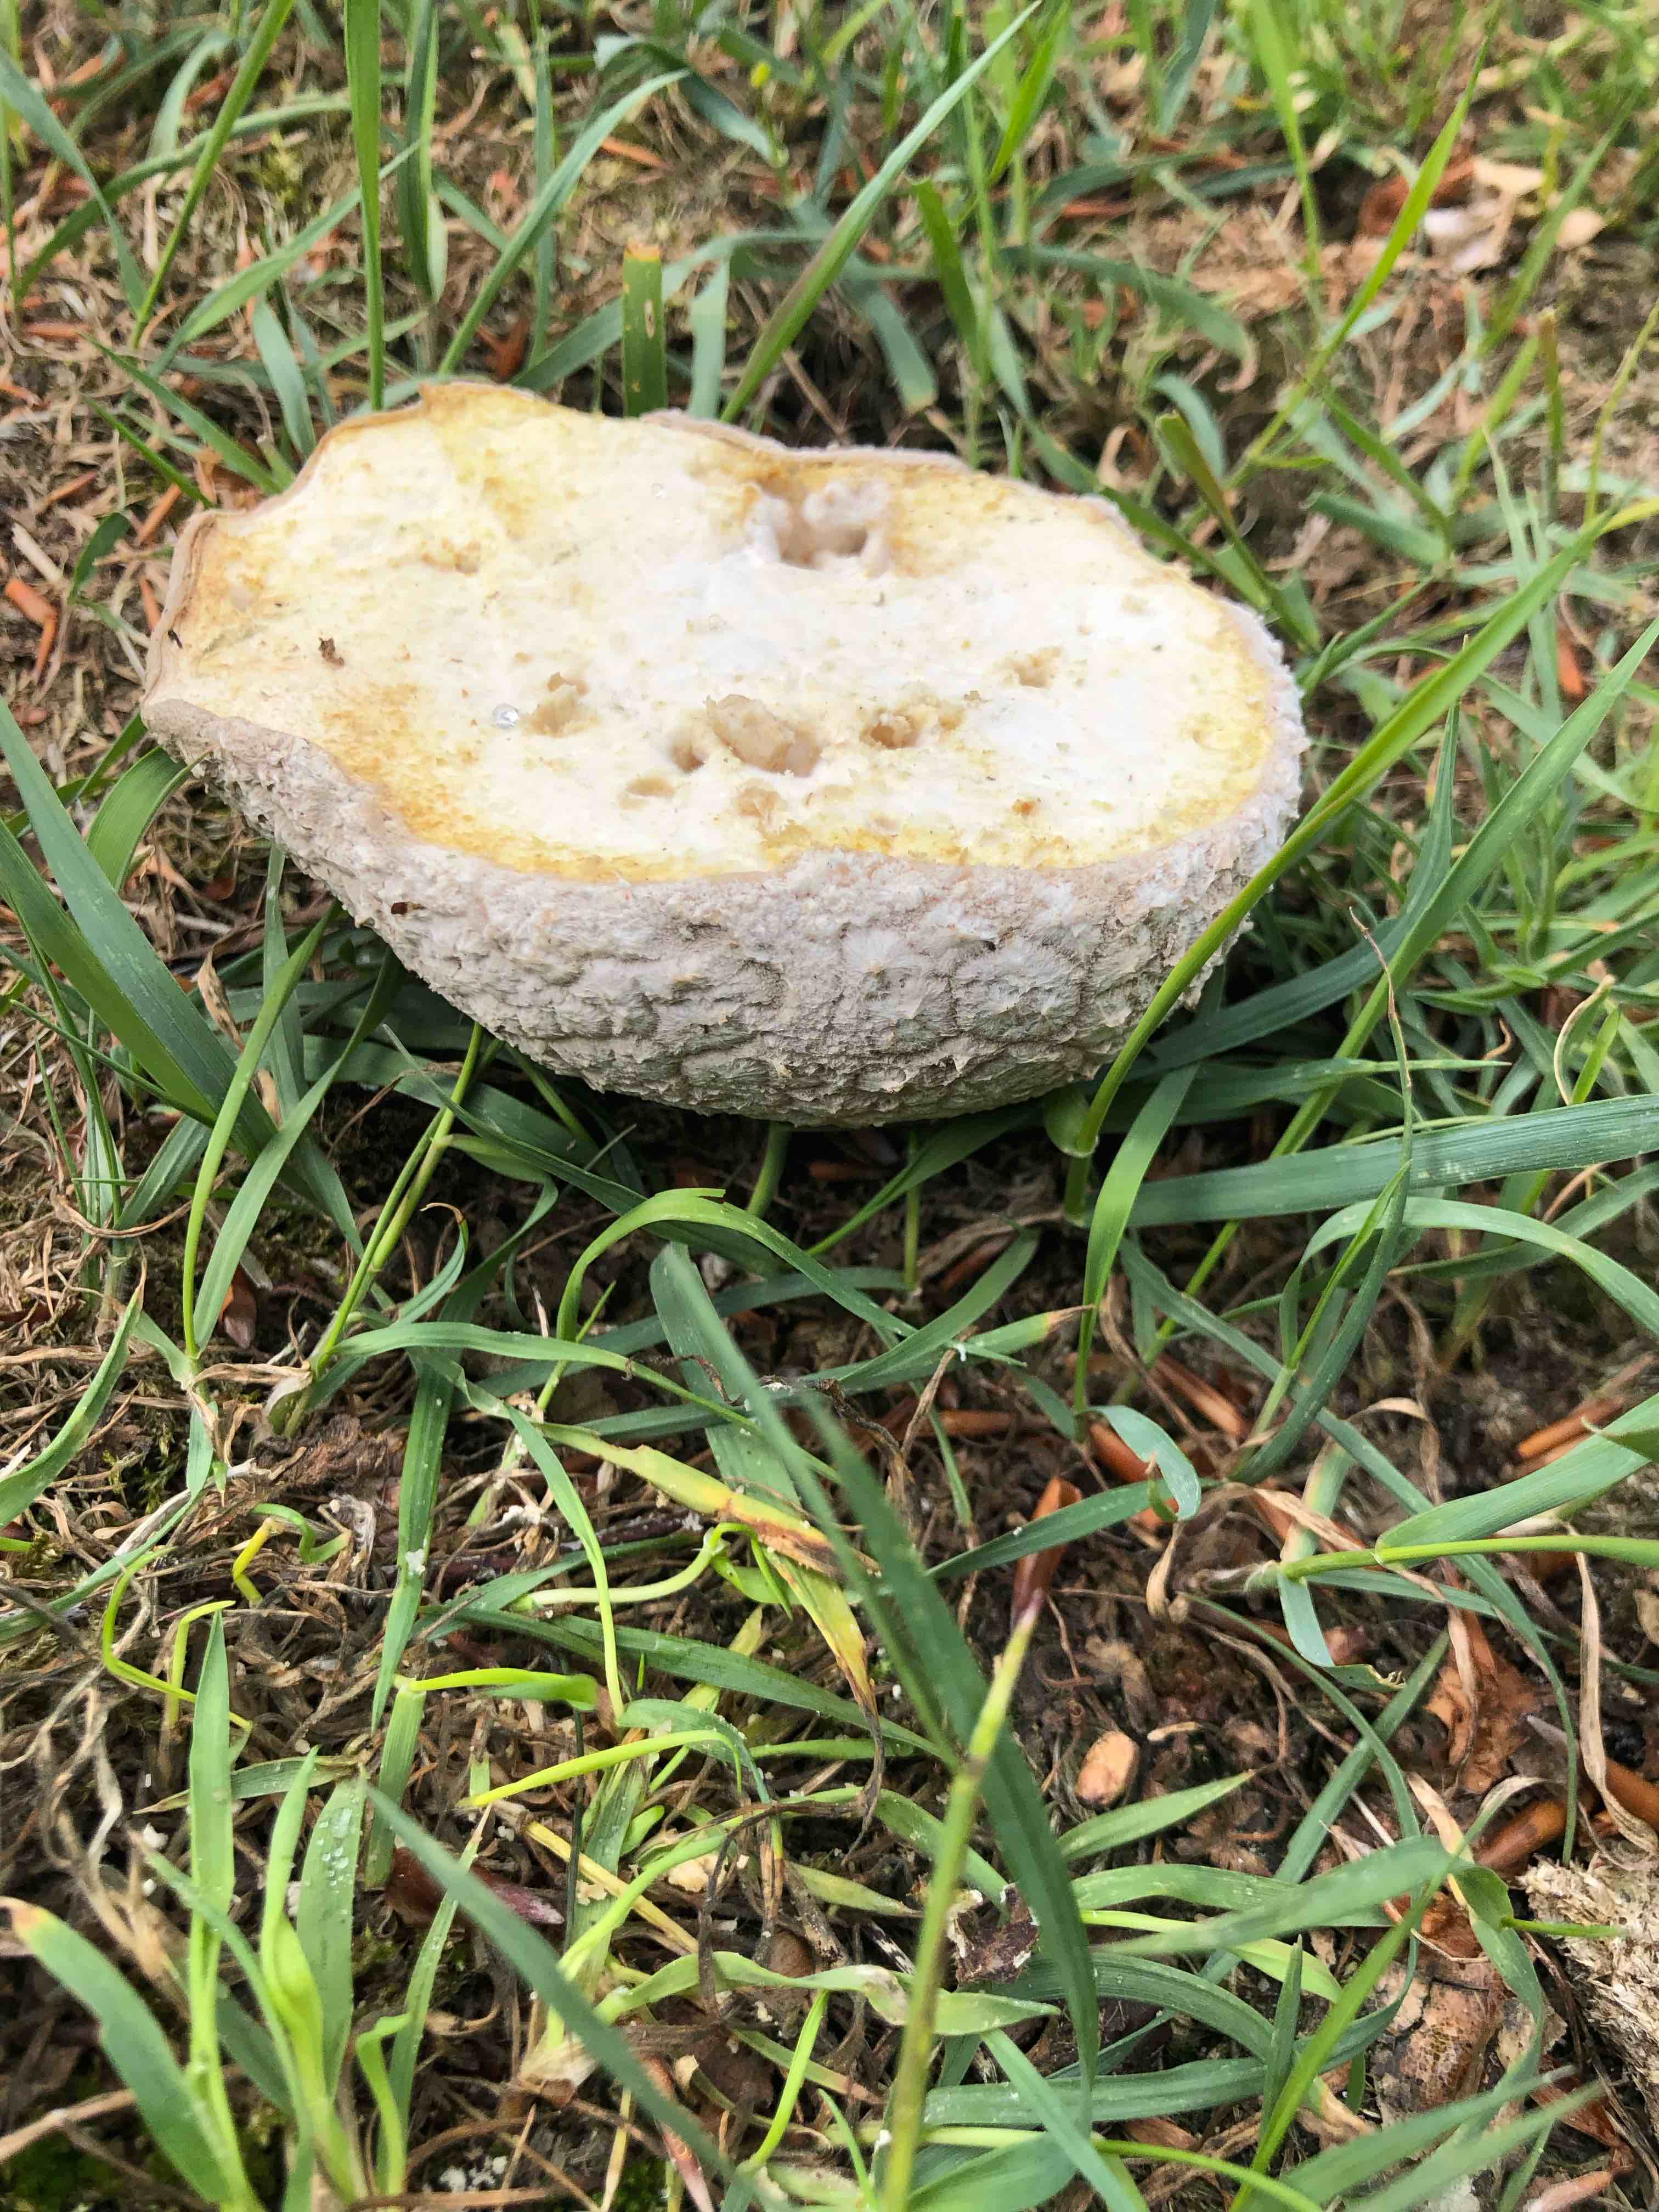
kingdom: Fungi
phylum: Basidiomycota
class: Agaricomycetes
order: Agaricales
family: Lycoperdaceae
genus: Bovistella
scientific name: Bovistella utriformis
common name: skællet støvbold
